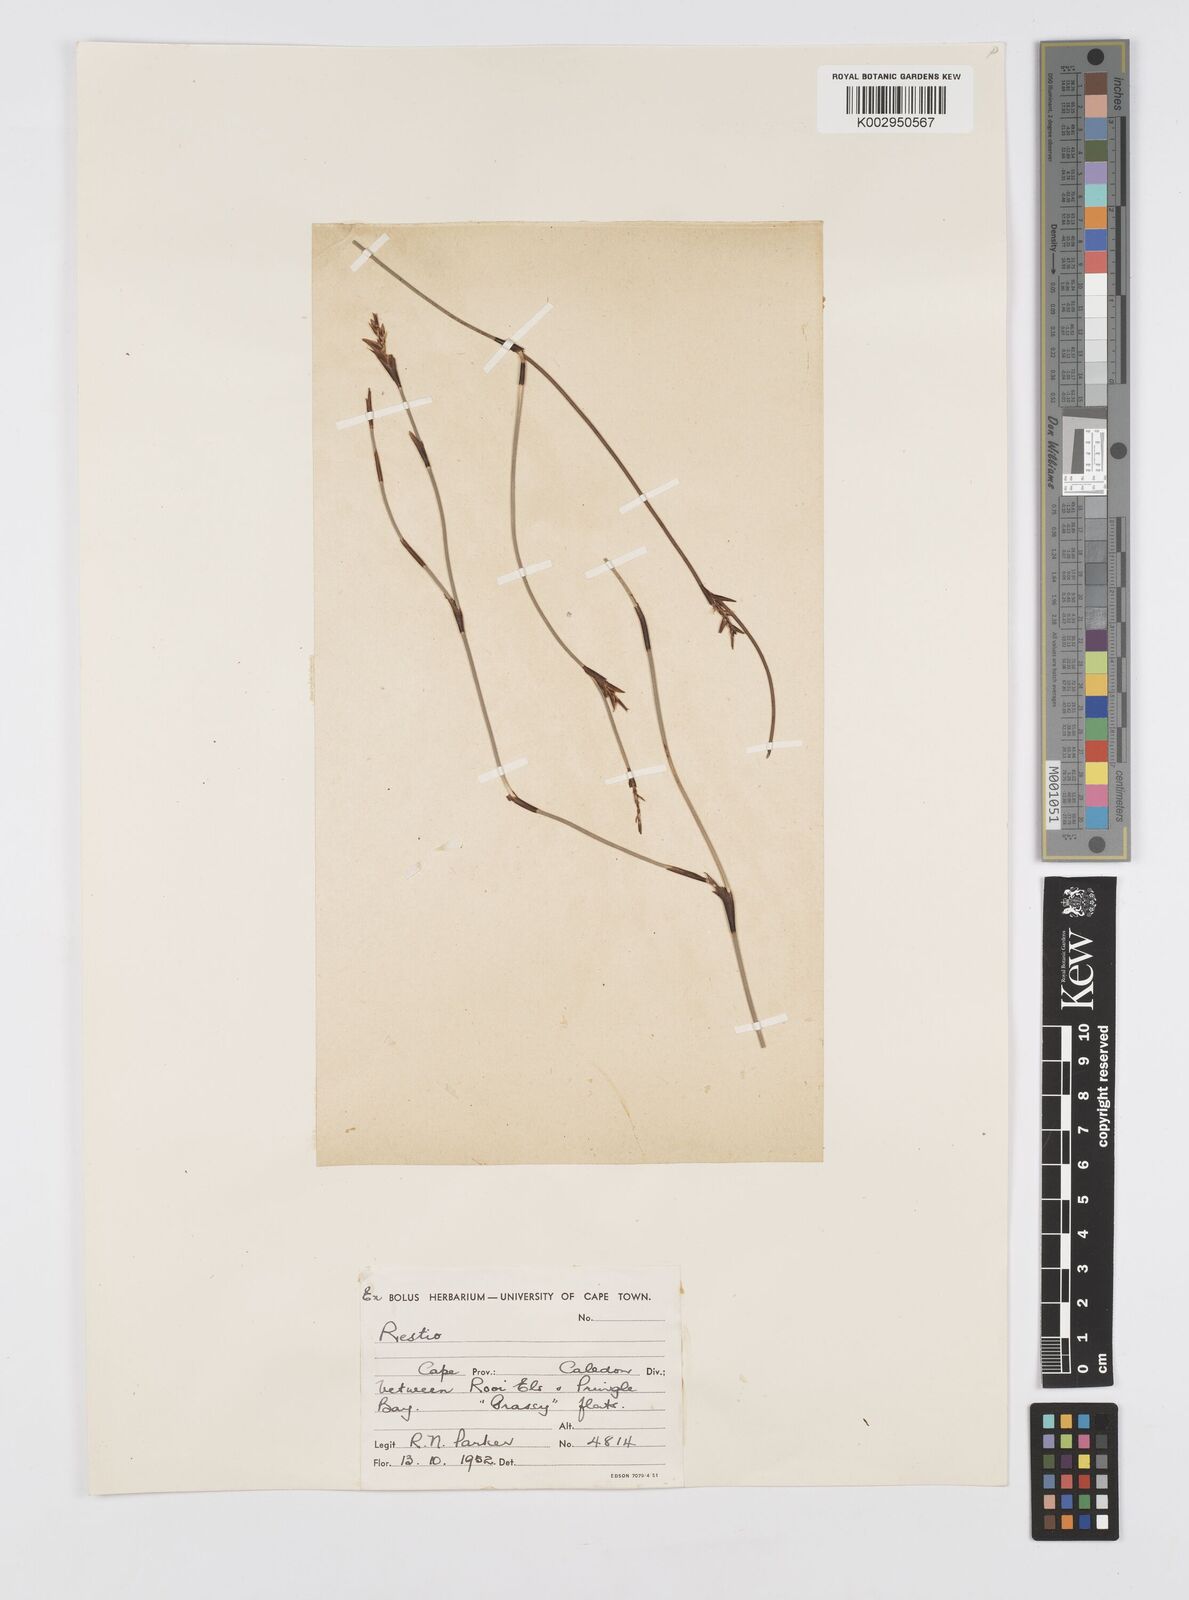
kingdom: Plantae
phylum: Tracheophyta
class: Liliopsida
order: Poales
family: Restionaceae
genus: Soroveta
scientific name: Soroveta ambigua
